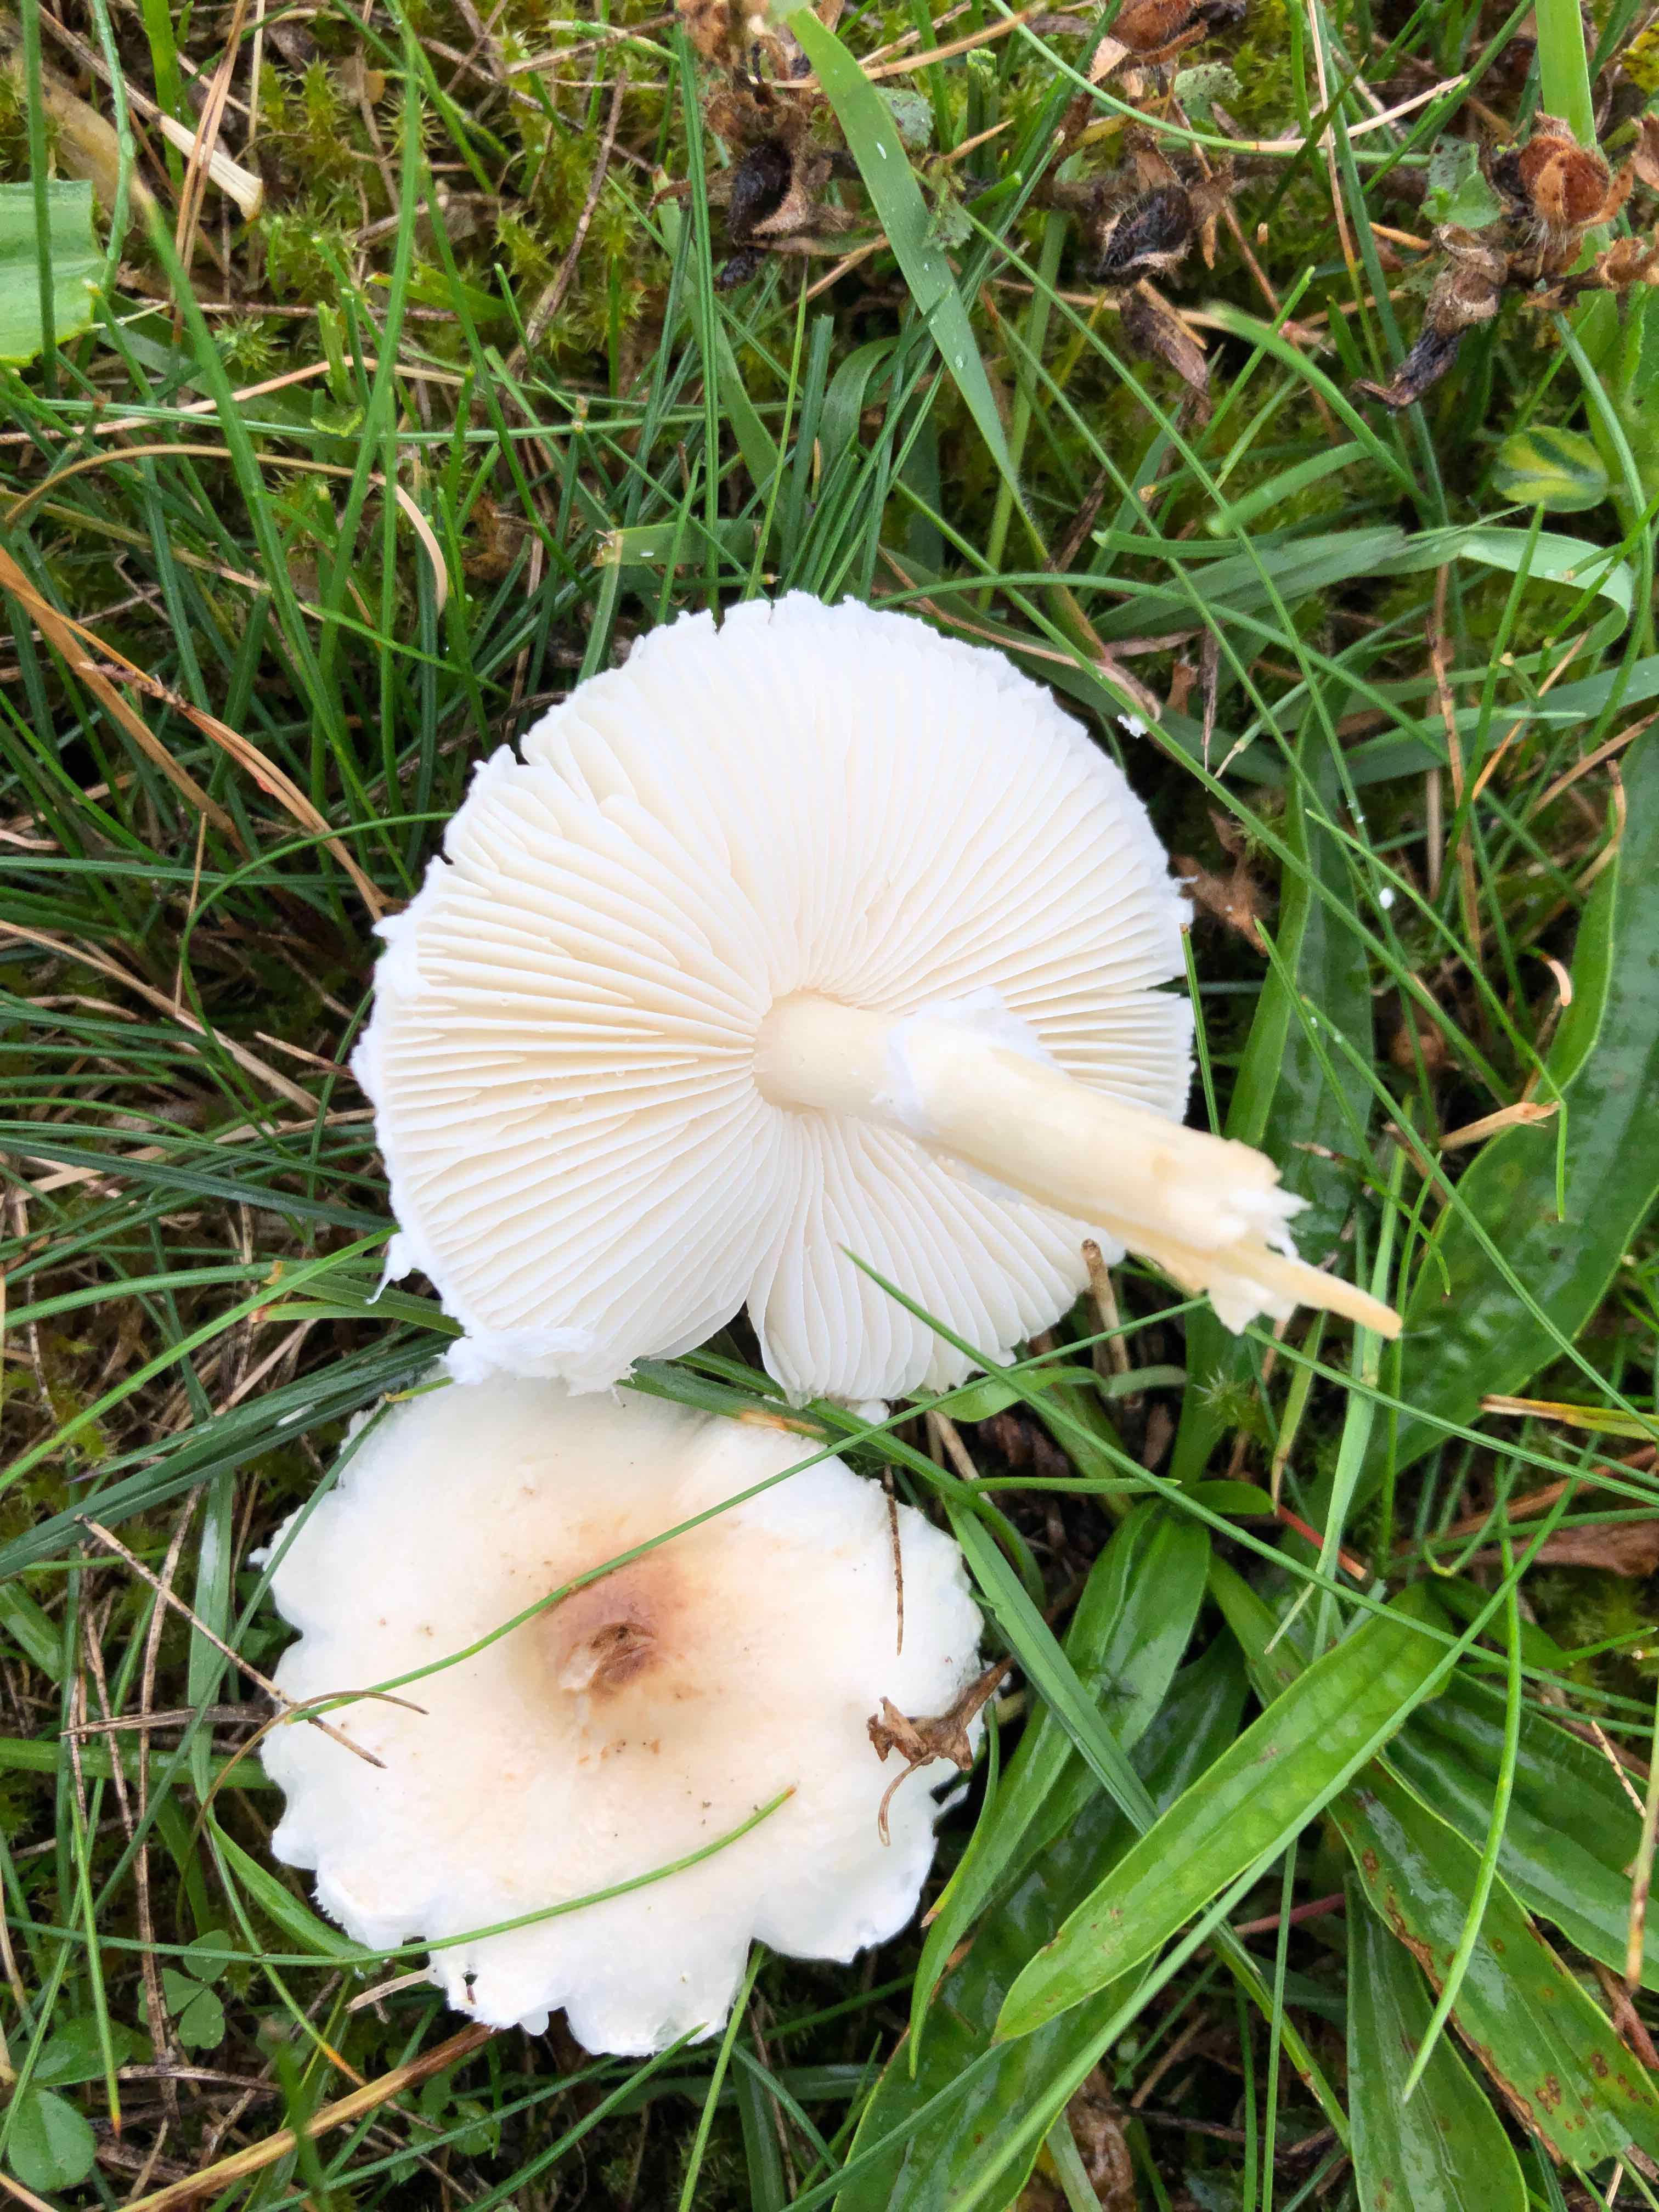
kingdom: Fungi
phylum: Basidiomycota
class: Agaricomycetes
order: Agaricales
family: Agaricaceae
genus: Lepiota
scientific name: Lepiota erminea
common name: hvid parasolhat
